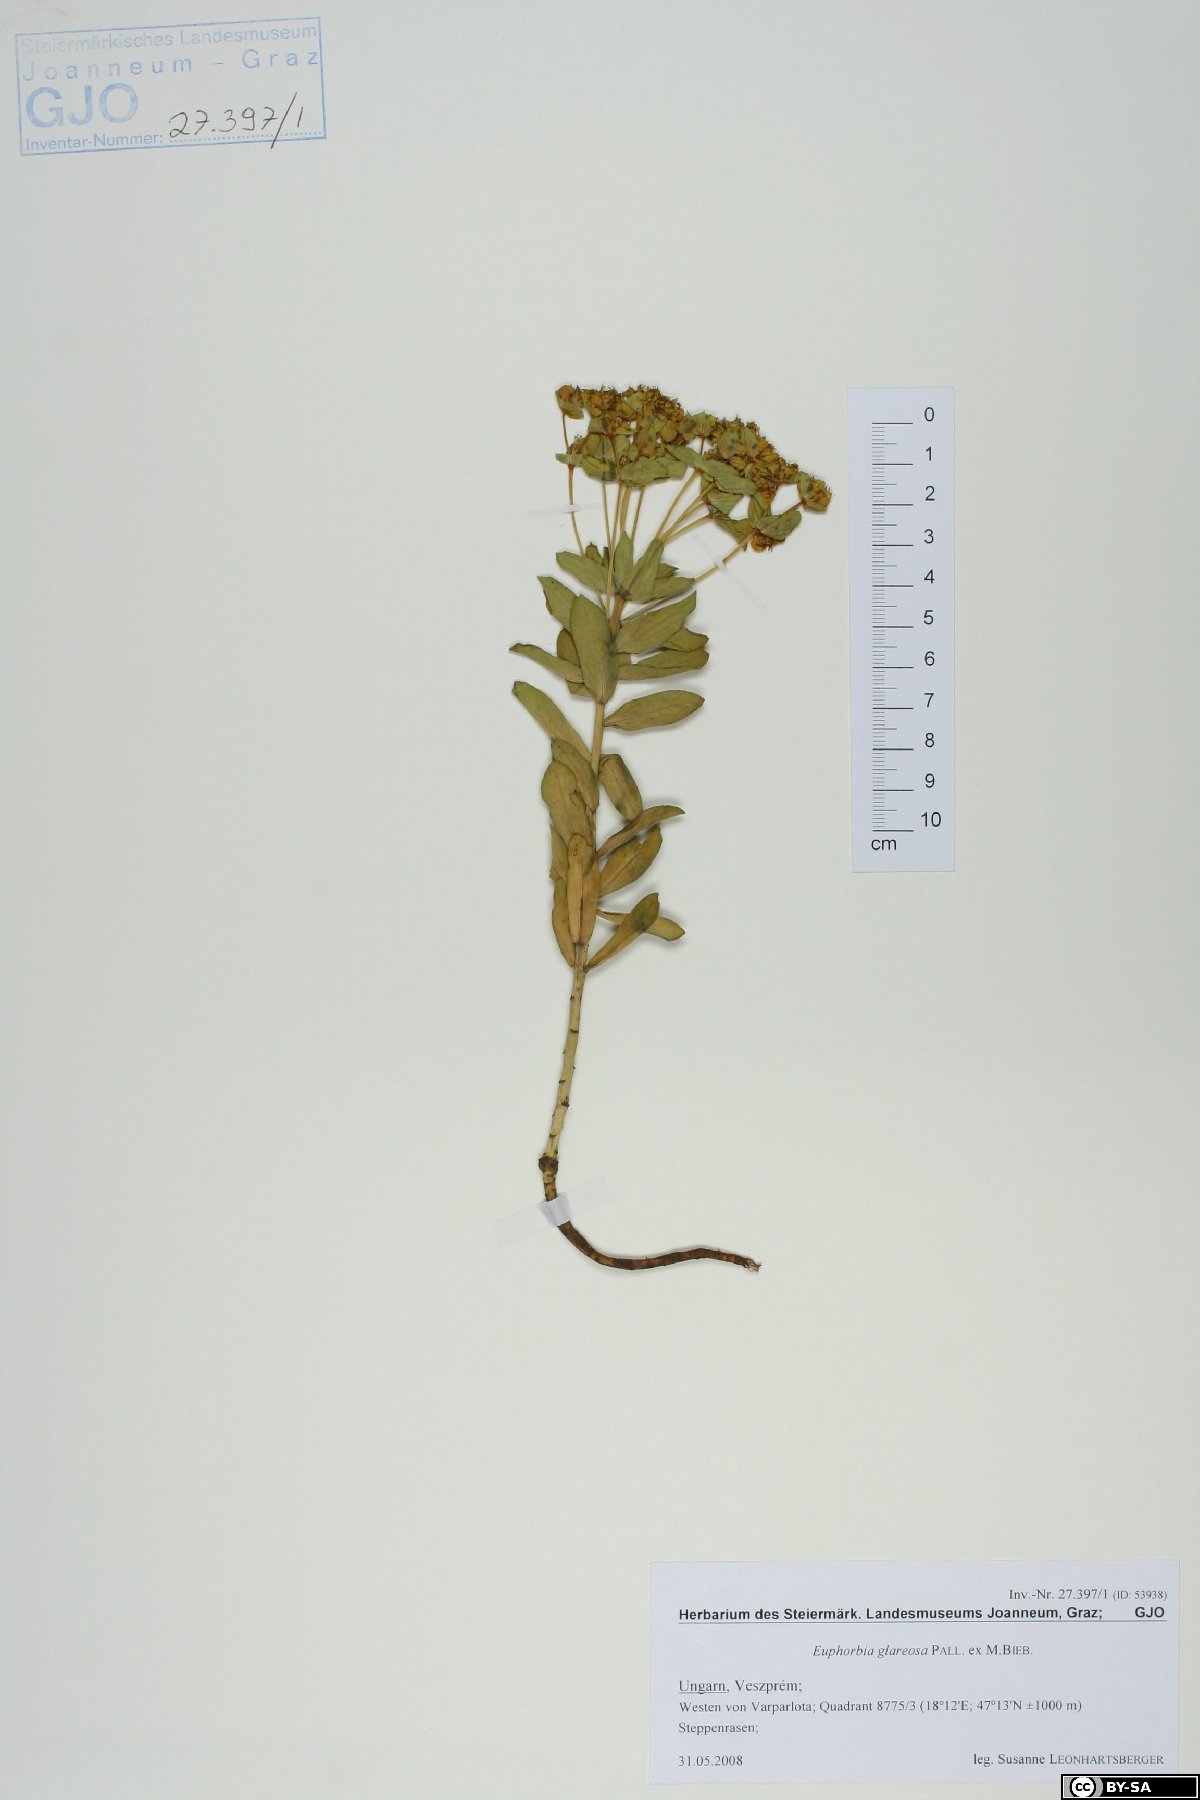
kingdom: Plantae
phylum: Tracheophyta
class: Magnoliopsida
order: Malpighiales
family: Euphorbiaceae
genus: Euphorbia
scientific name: Euphorbia glareosa
